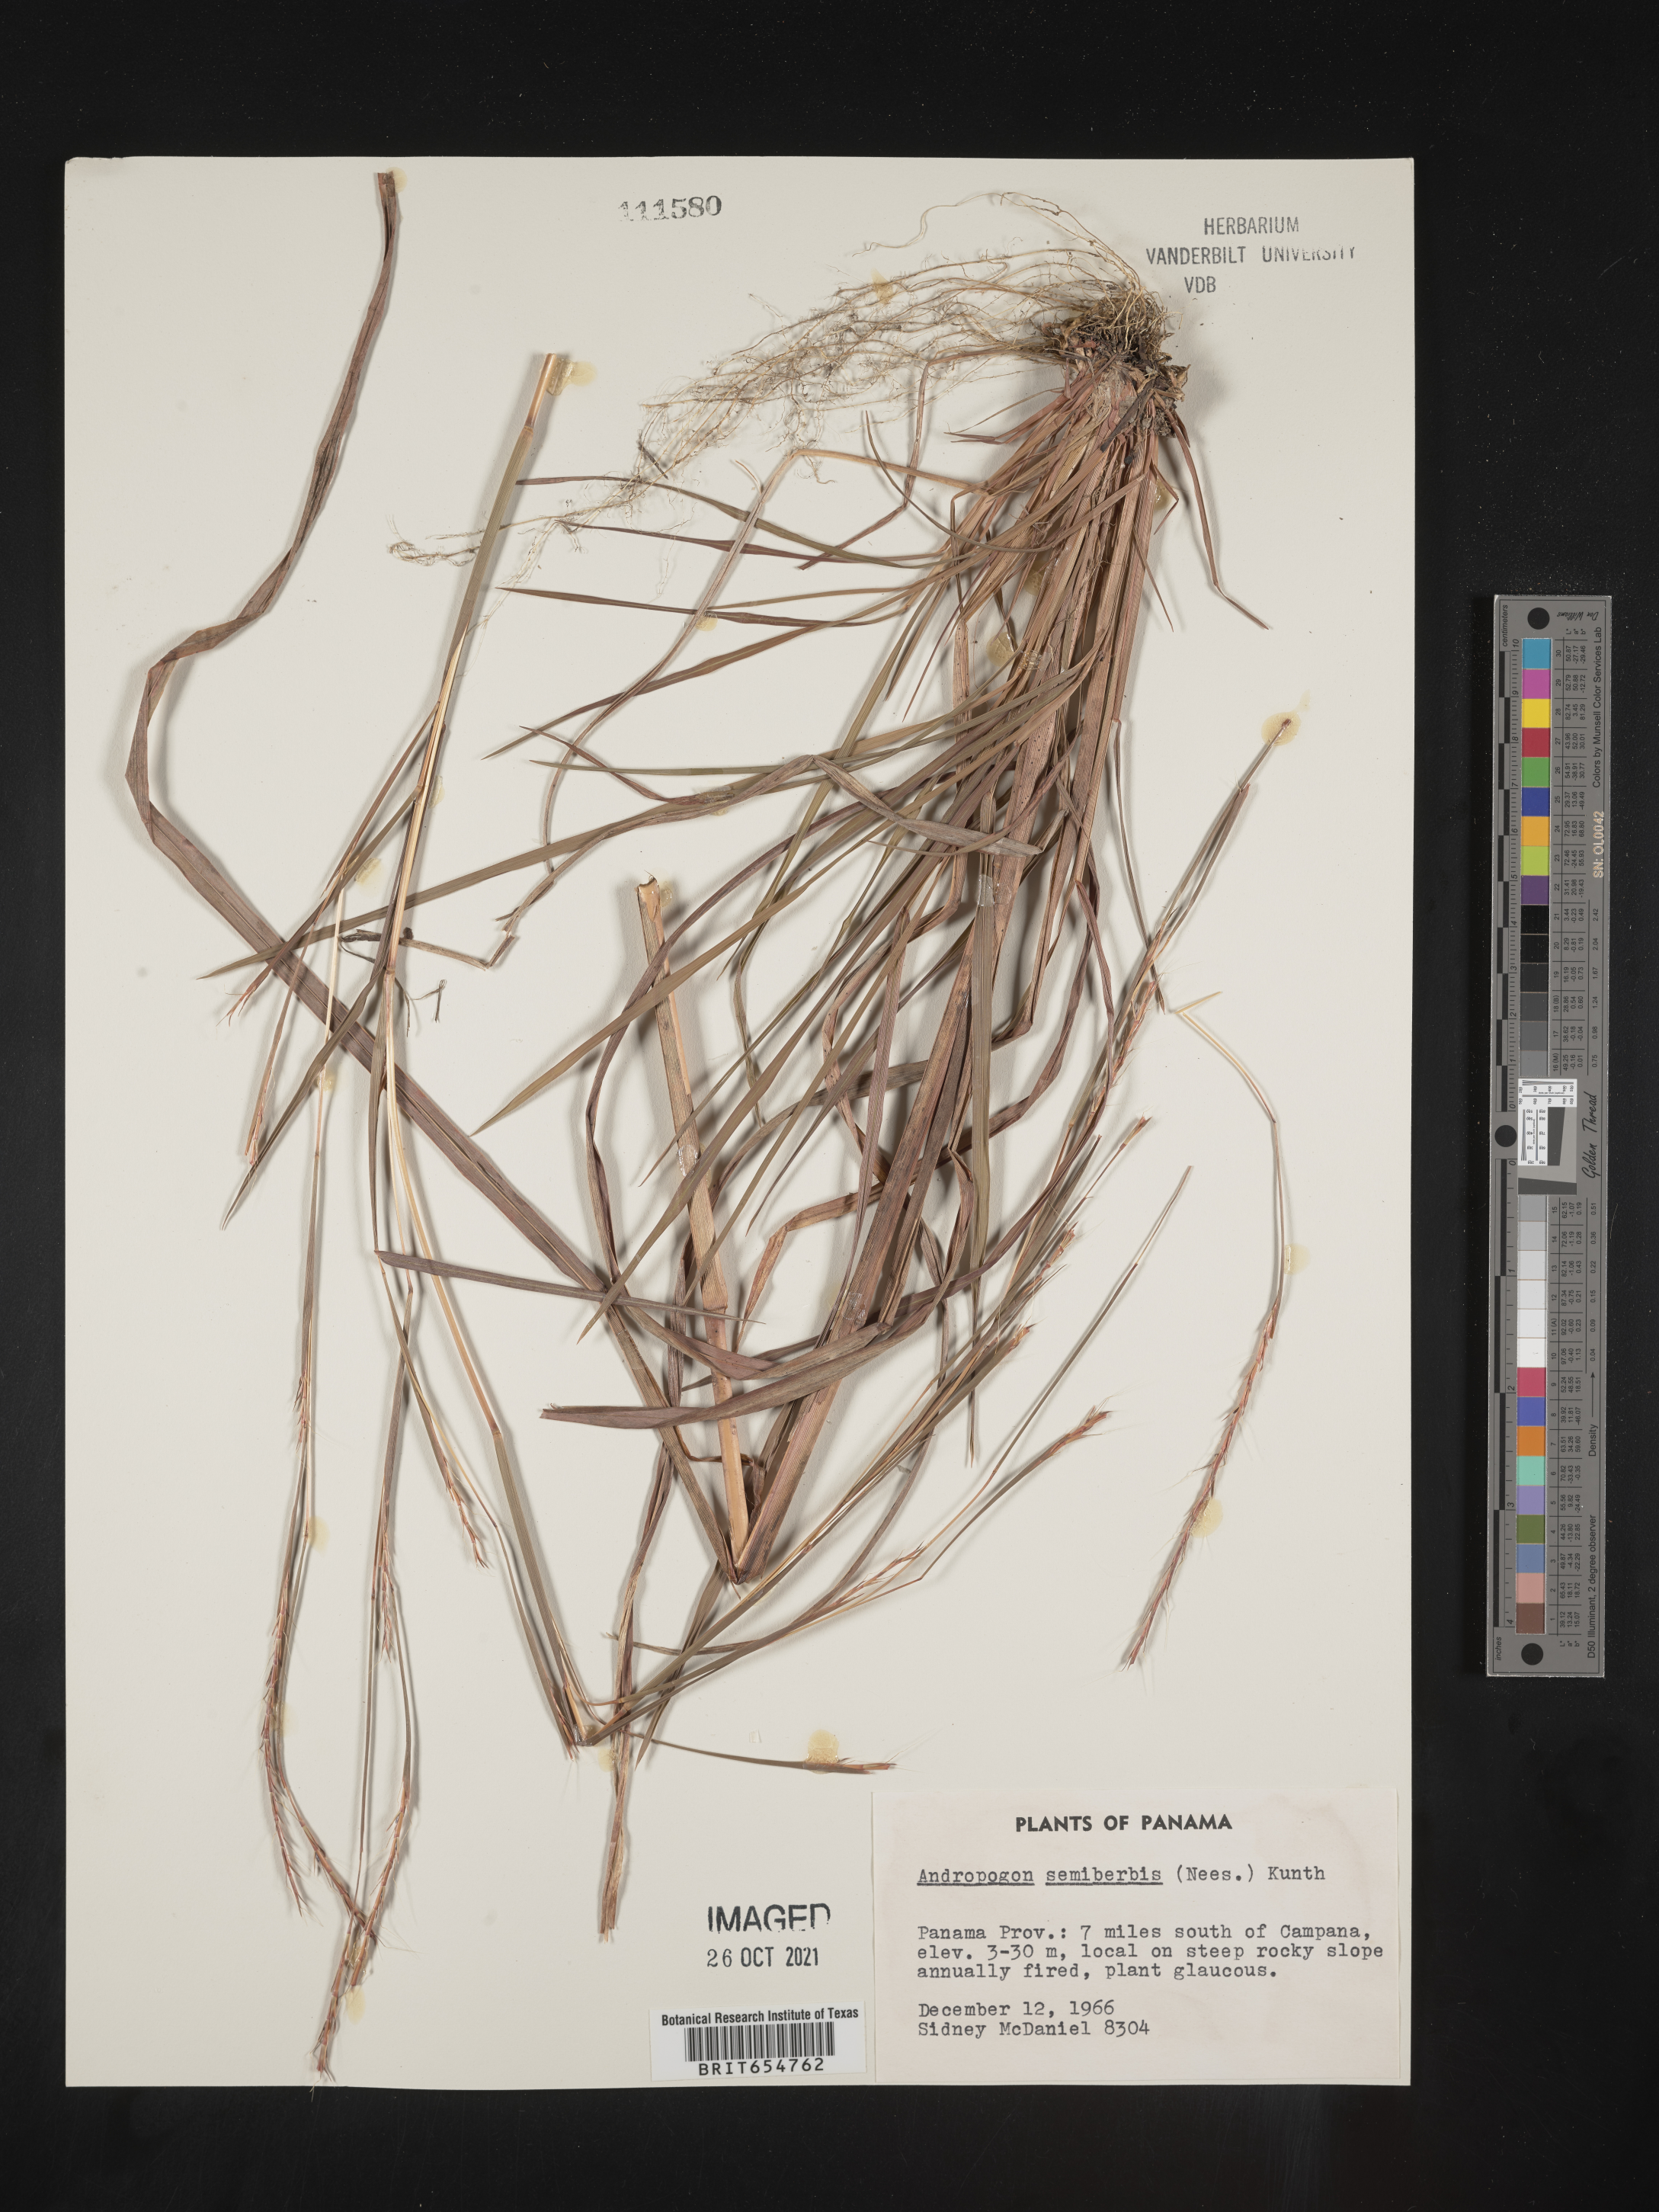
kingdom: Plantae
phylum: Tracheophyta
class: Liliopsida
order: Poales
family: Poaceae
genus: Andropogon
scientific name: Andropogon
